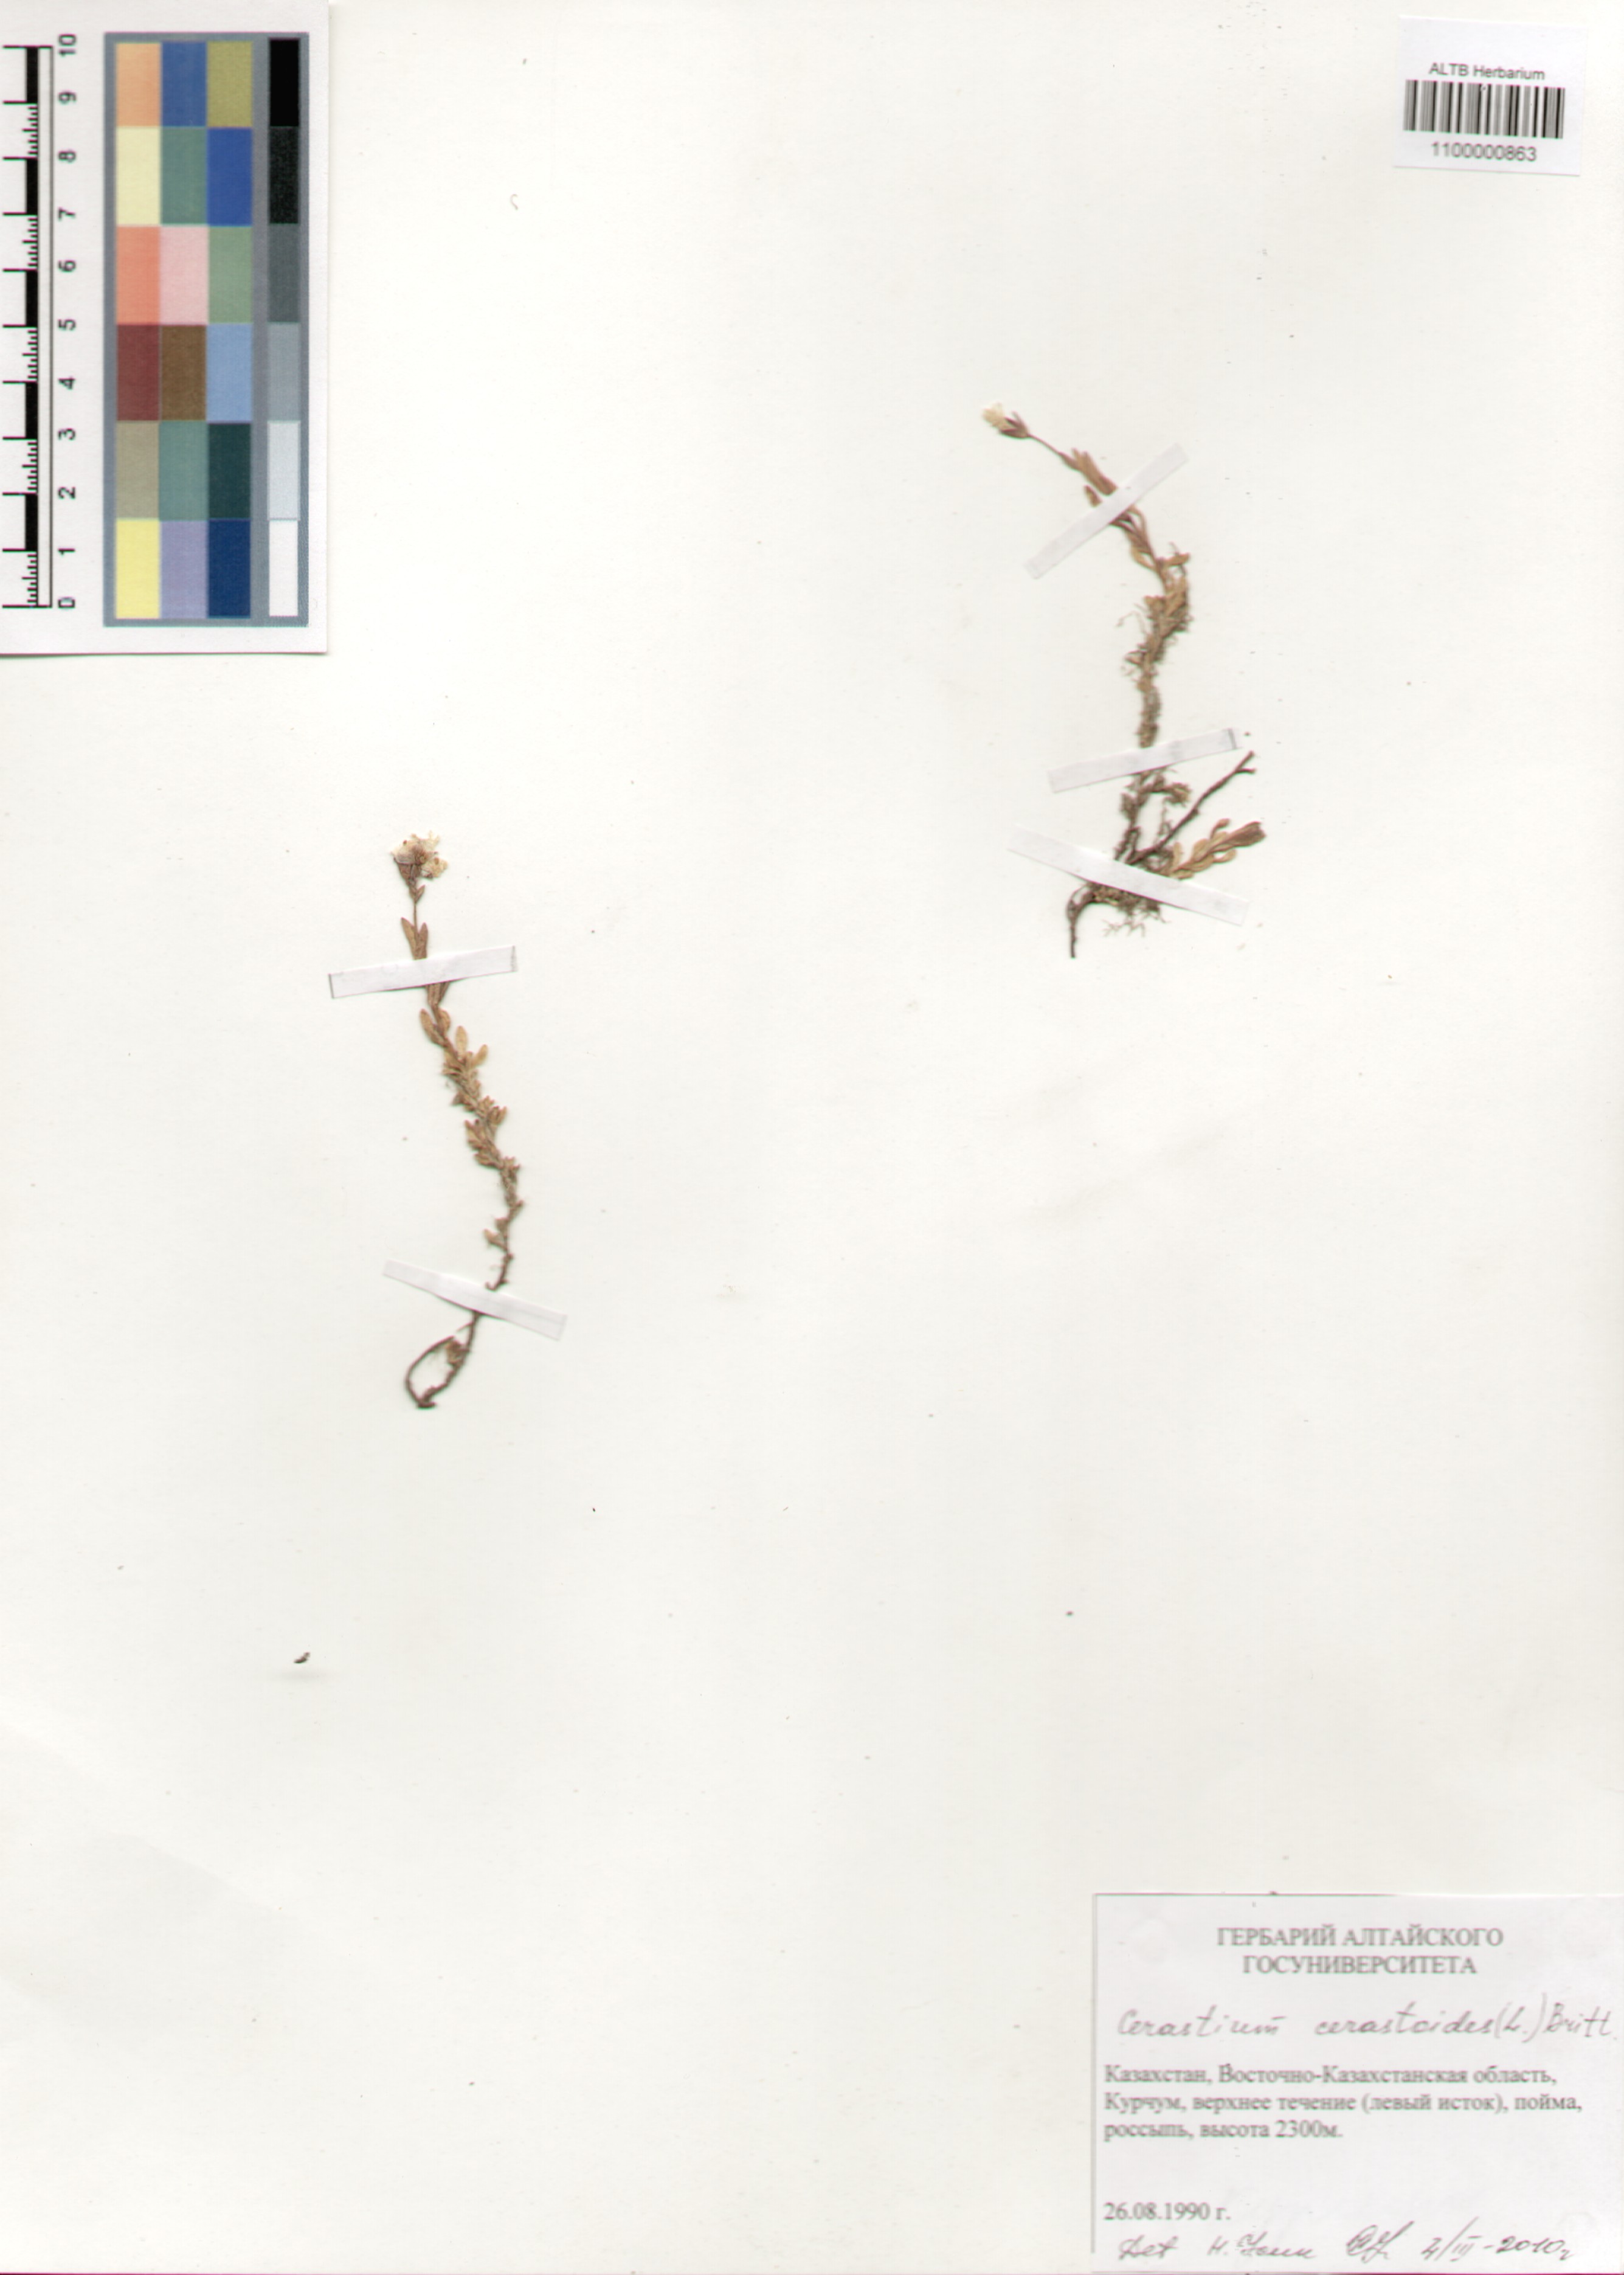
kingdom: Plantae
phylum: Tracheophyta
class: Magnoliopsida
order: Caryophyllales
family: Caryophyllaceae
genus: Dichodon
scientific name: Dichodon cerastoides
